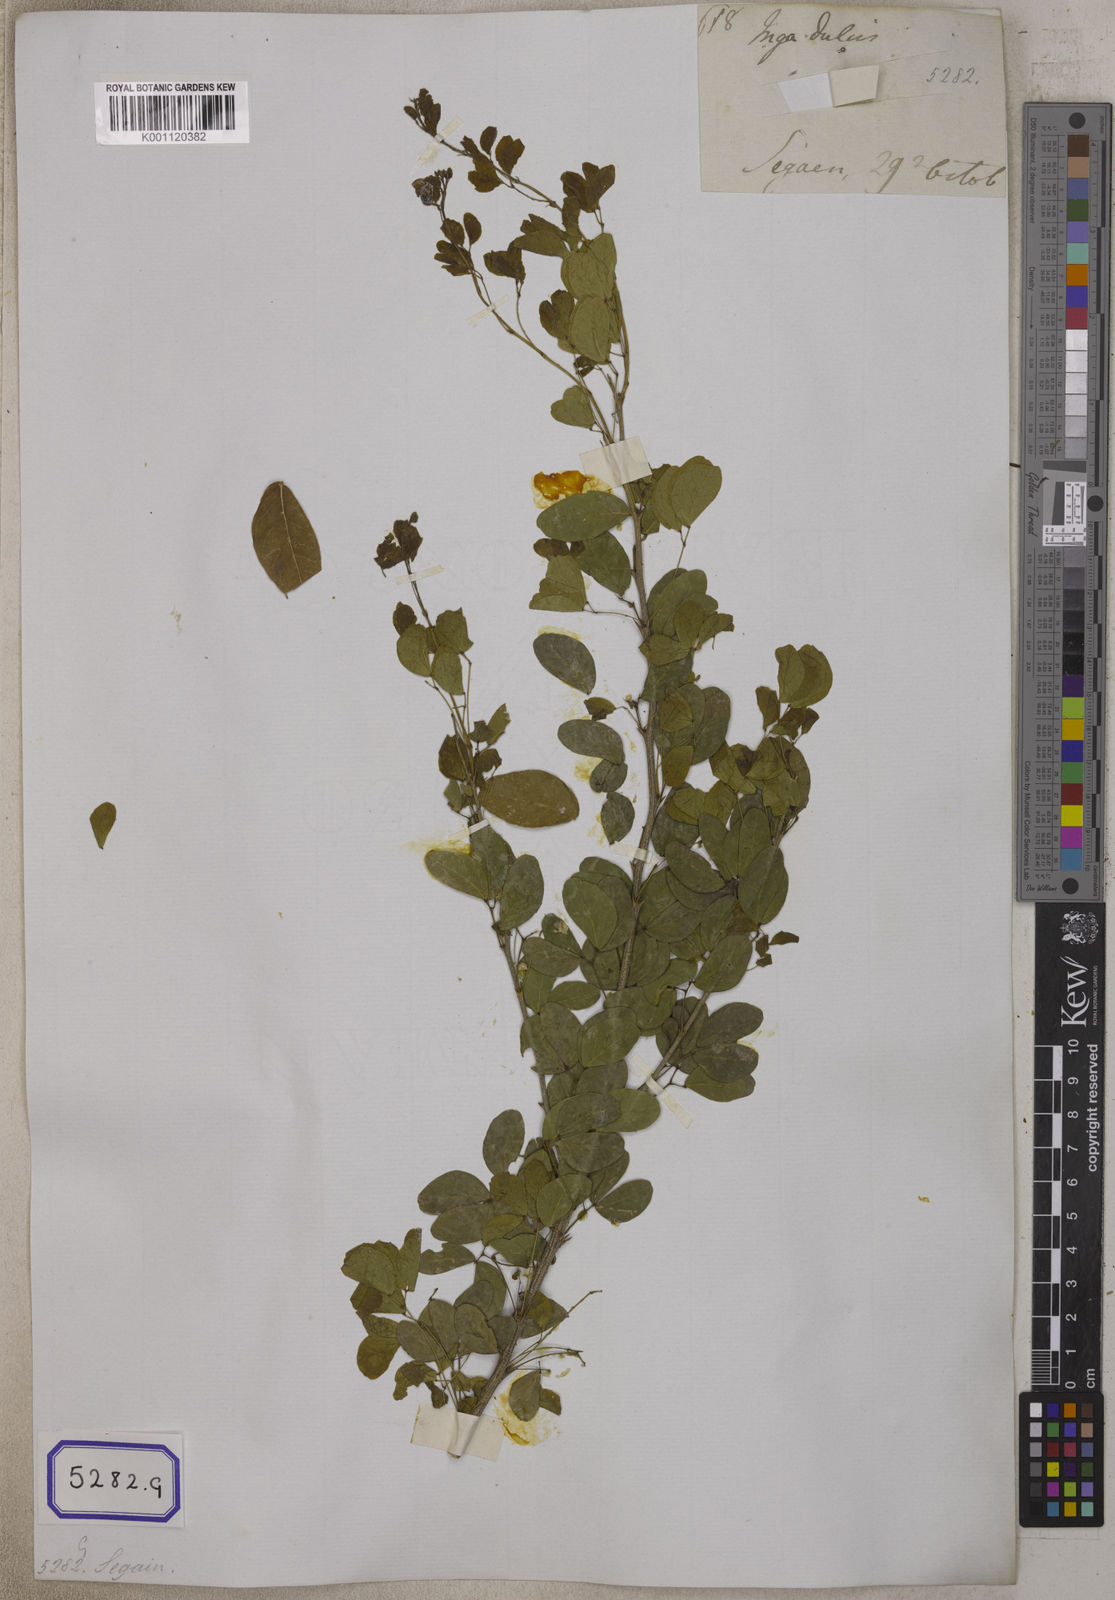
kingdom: Plantae
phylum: Tracheophyta
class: Magnoliopsida
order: Fabales
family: Fabaceae
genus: Pithecellobium
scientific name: Pithecellobium dulce
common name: Monkeypod
